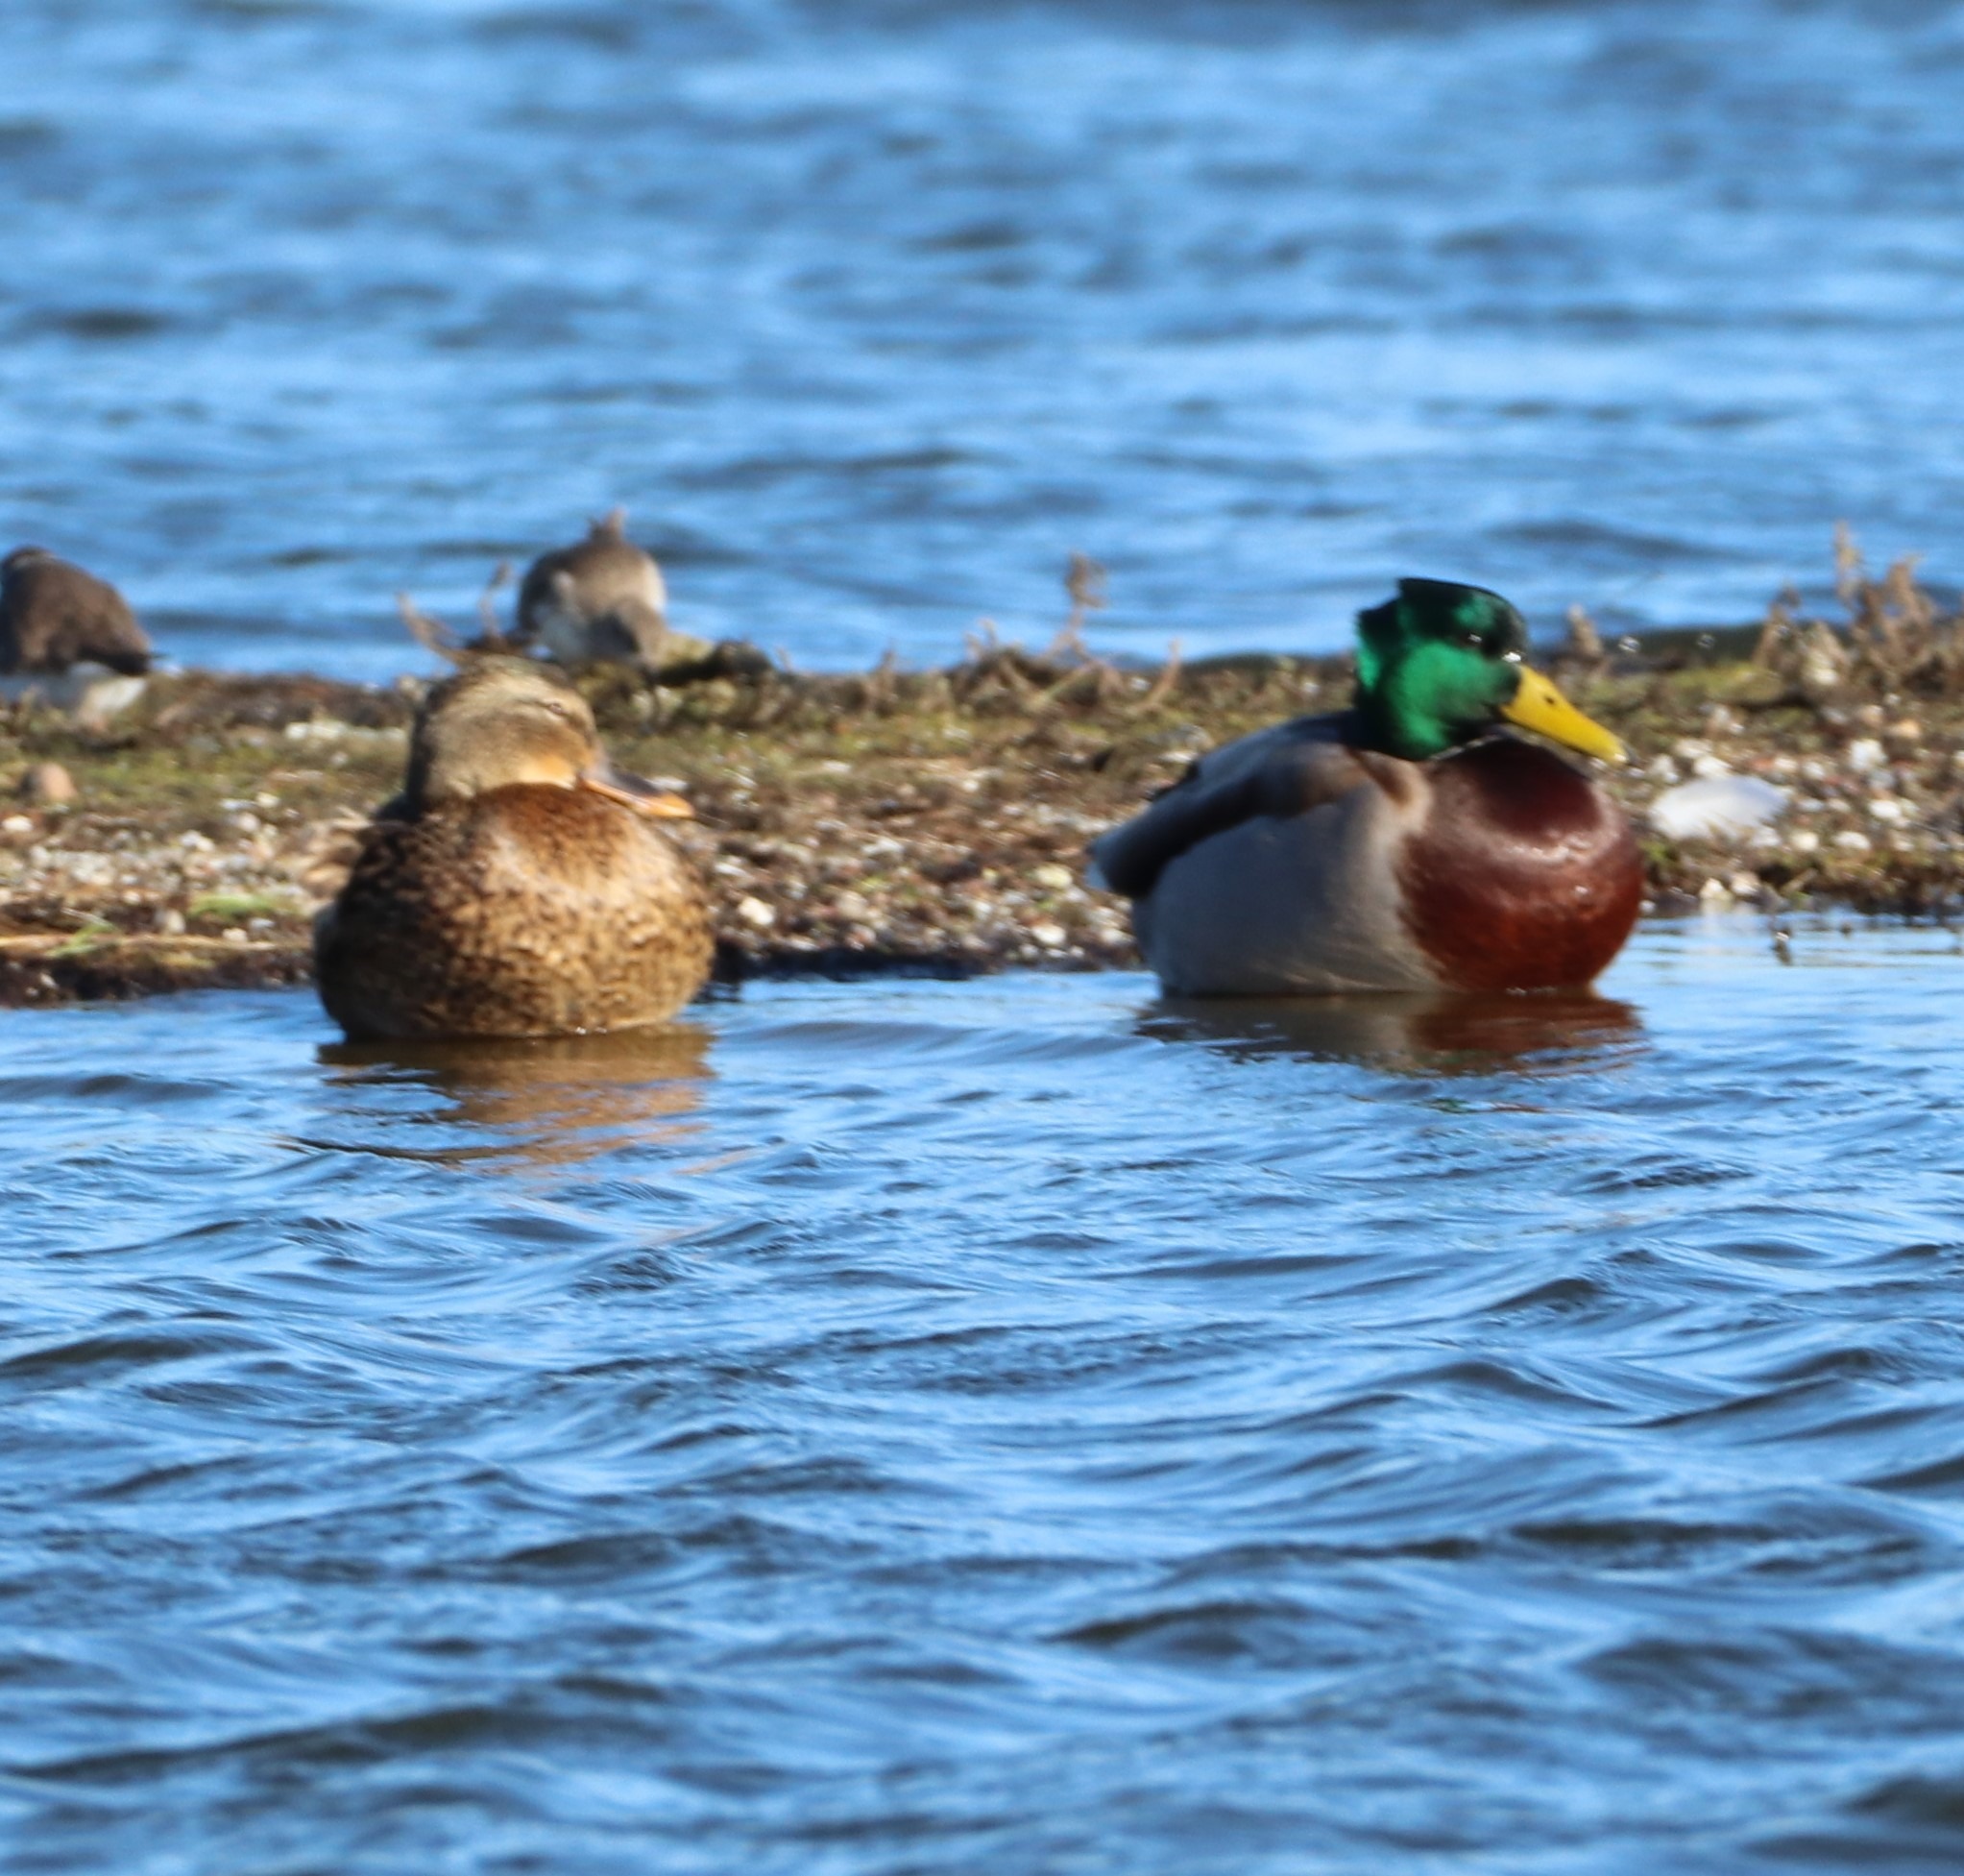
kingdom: Animalia
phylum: Chordata
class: Aves
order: Anseriformes
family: Anatidae
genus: Anas
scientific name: Anas platyrhynchos
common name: Gråand
